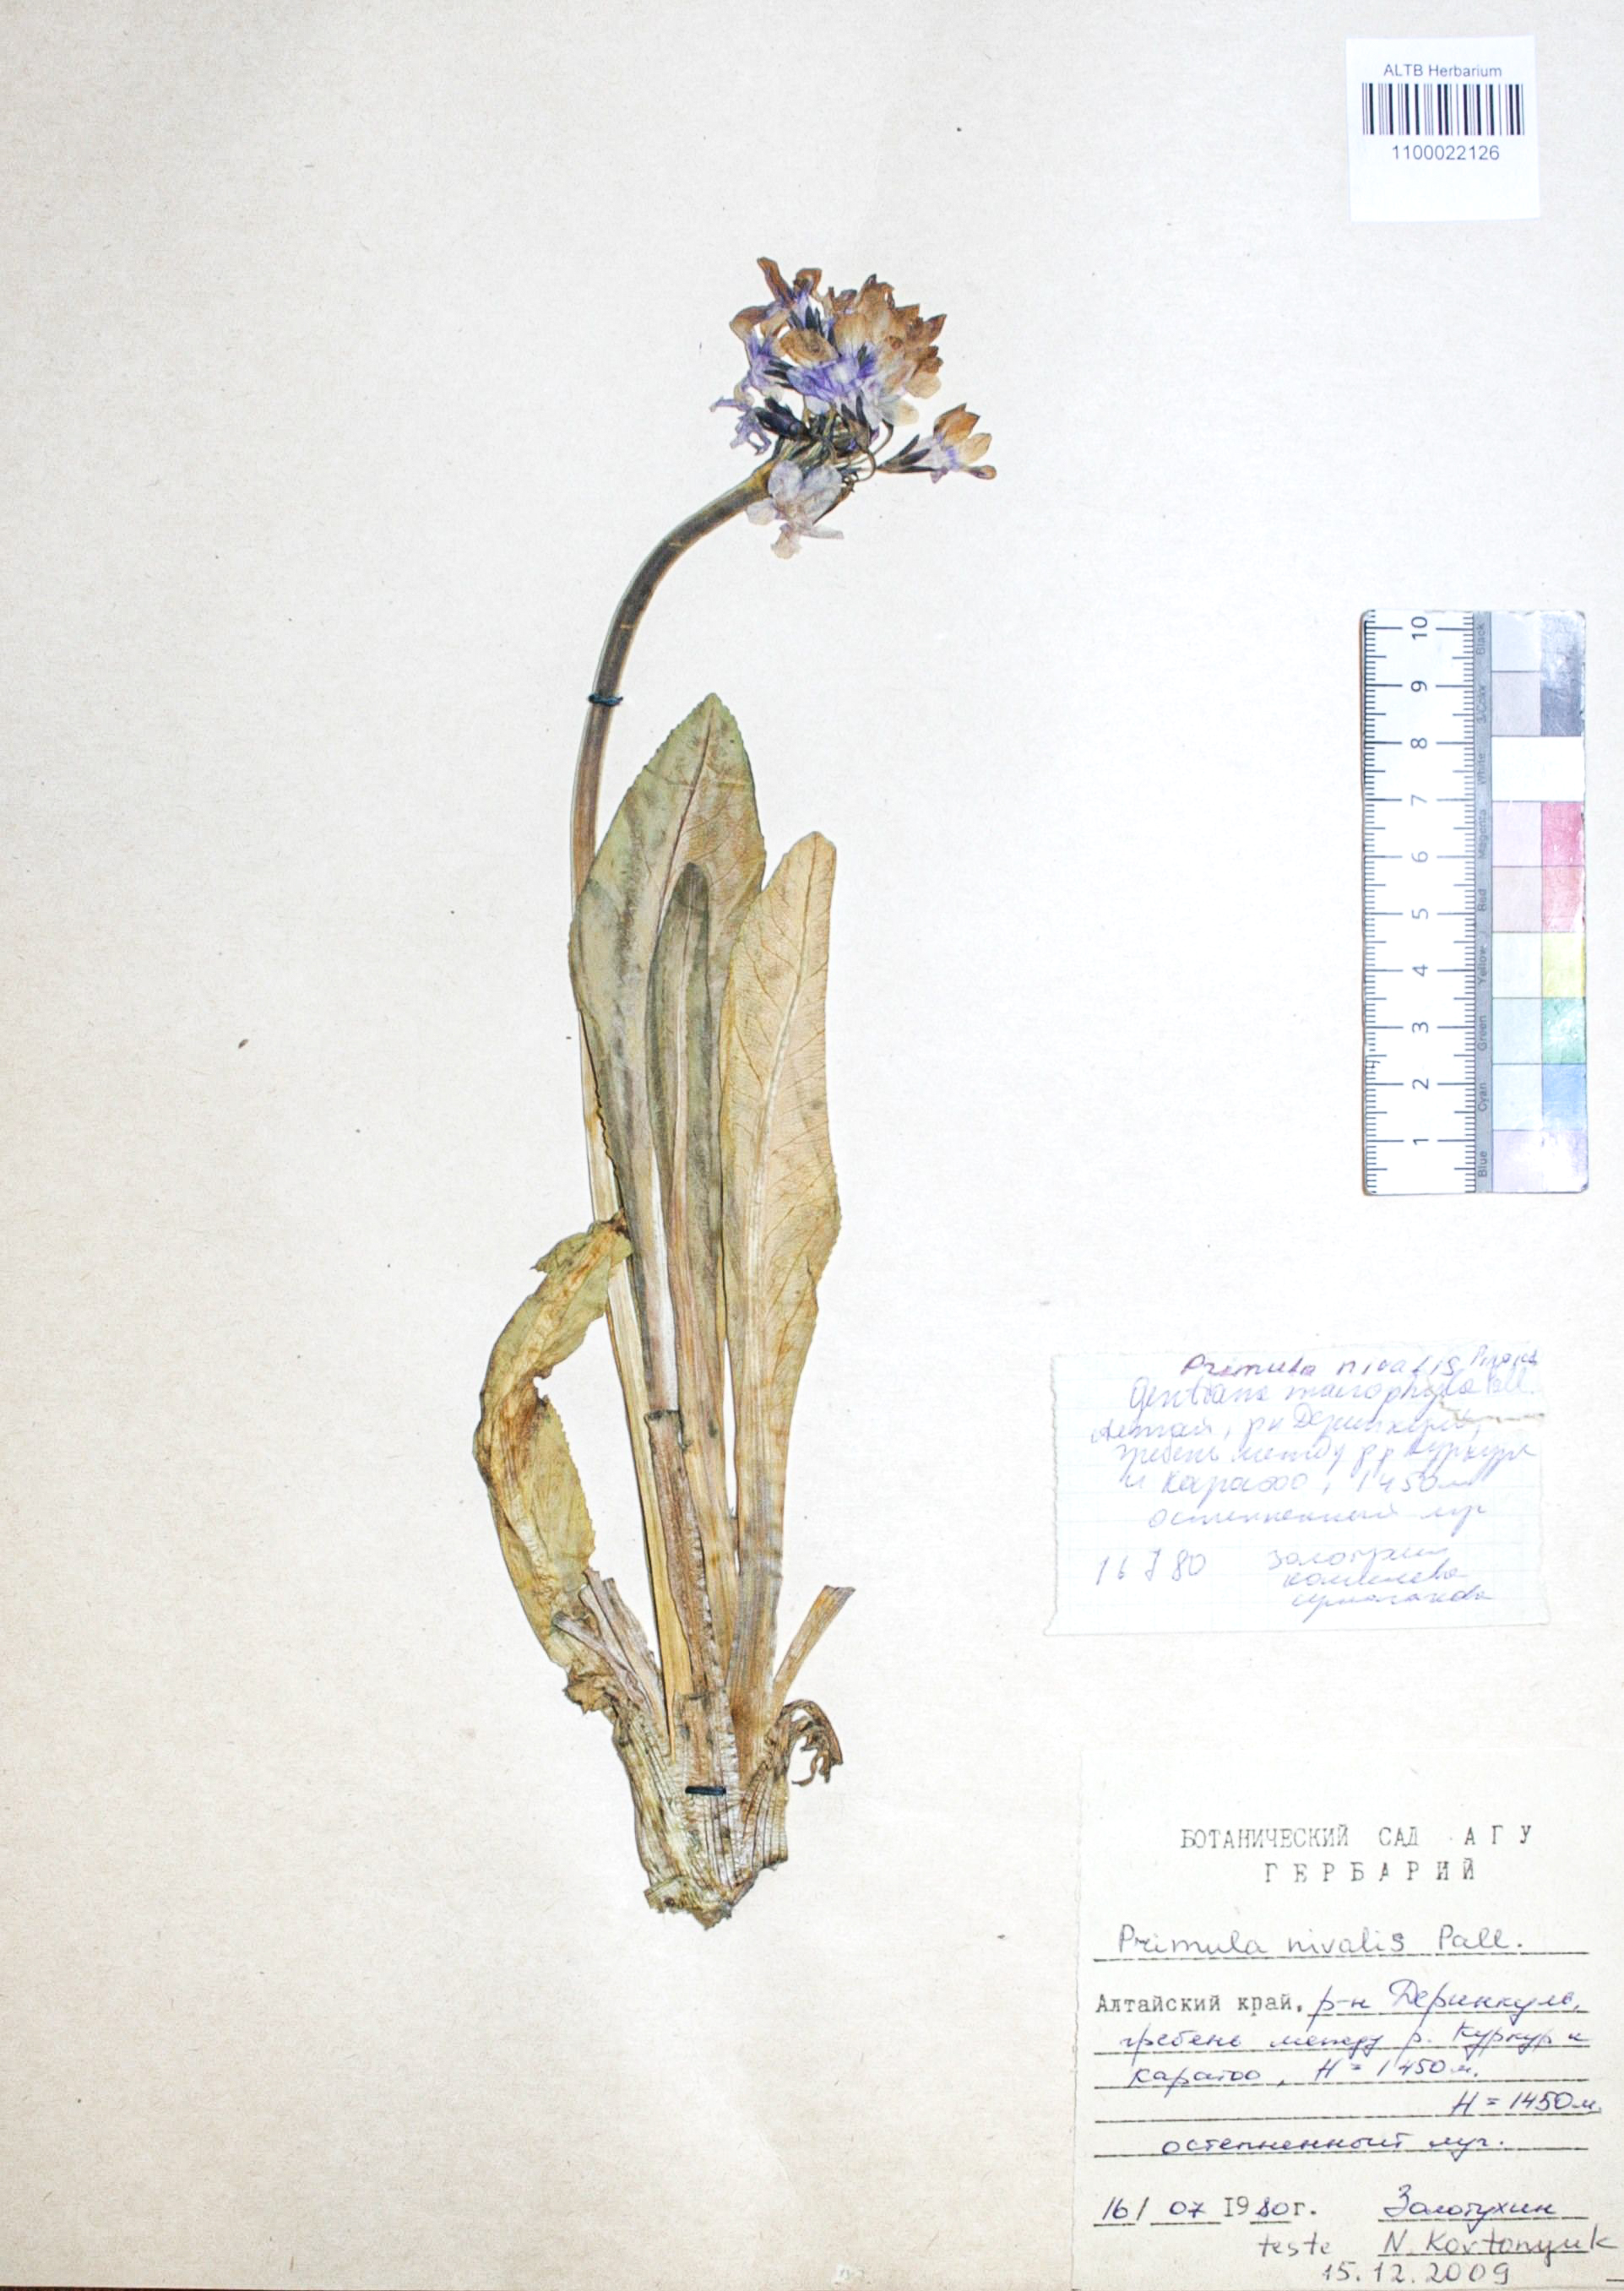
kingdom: Plantae
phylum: Tracheophyta
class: Magnoliopsida
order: Ericales
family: Primulaceae
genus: Primula
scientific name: Primula nivalis
